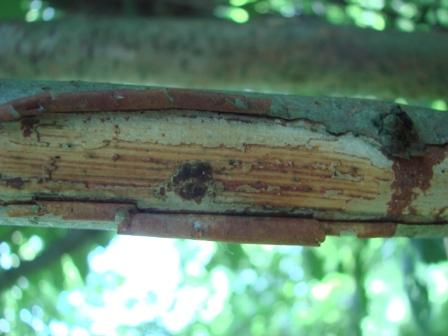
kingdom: Fungi
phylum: Basidiomycota
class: Agaricomycetes
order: Corticiales
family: Vuilleminiaceae
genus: Vuilleminia
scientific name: Vuilleminia coryli
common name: hassel-barksprænger
